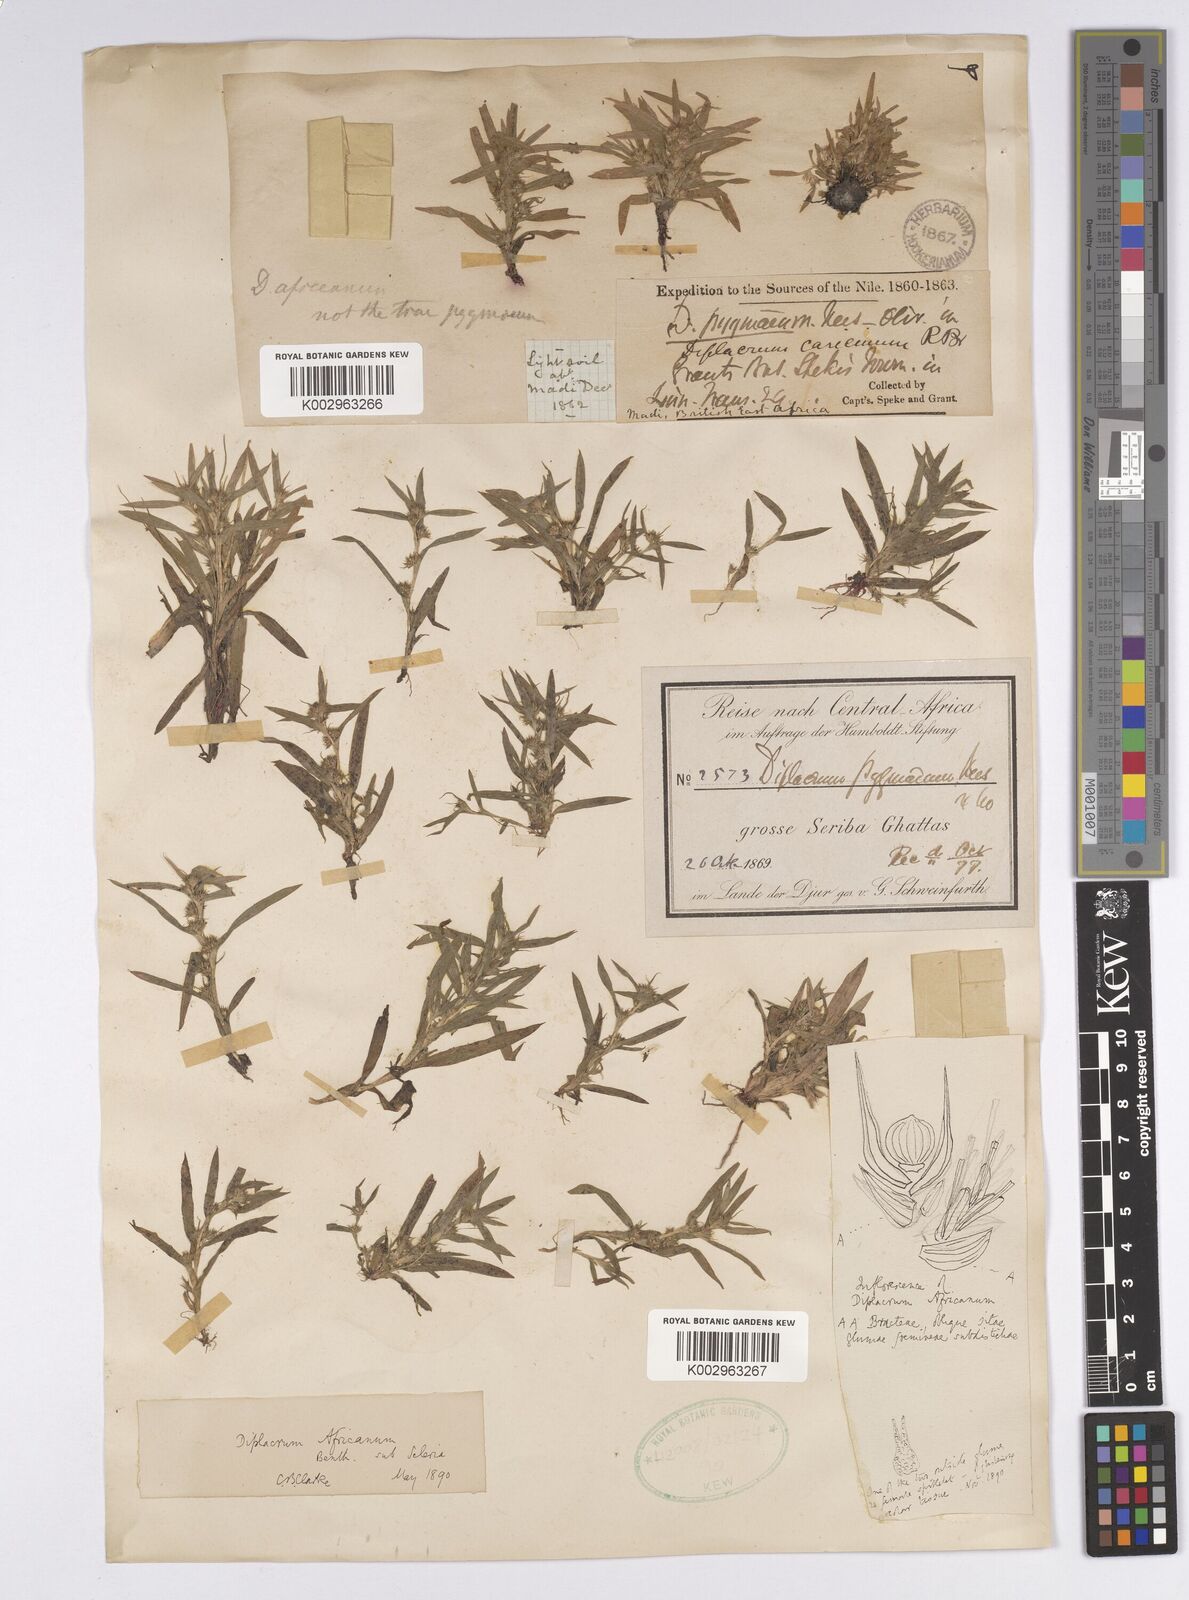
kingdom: Plantae
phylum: Tracheophyta
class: Liliopsida
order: Poales
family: Cyperaceae
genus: Diplacrum
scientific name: Diplacrum africanum
